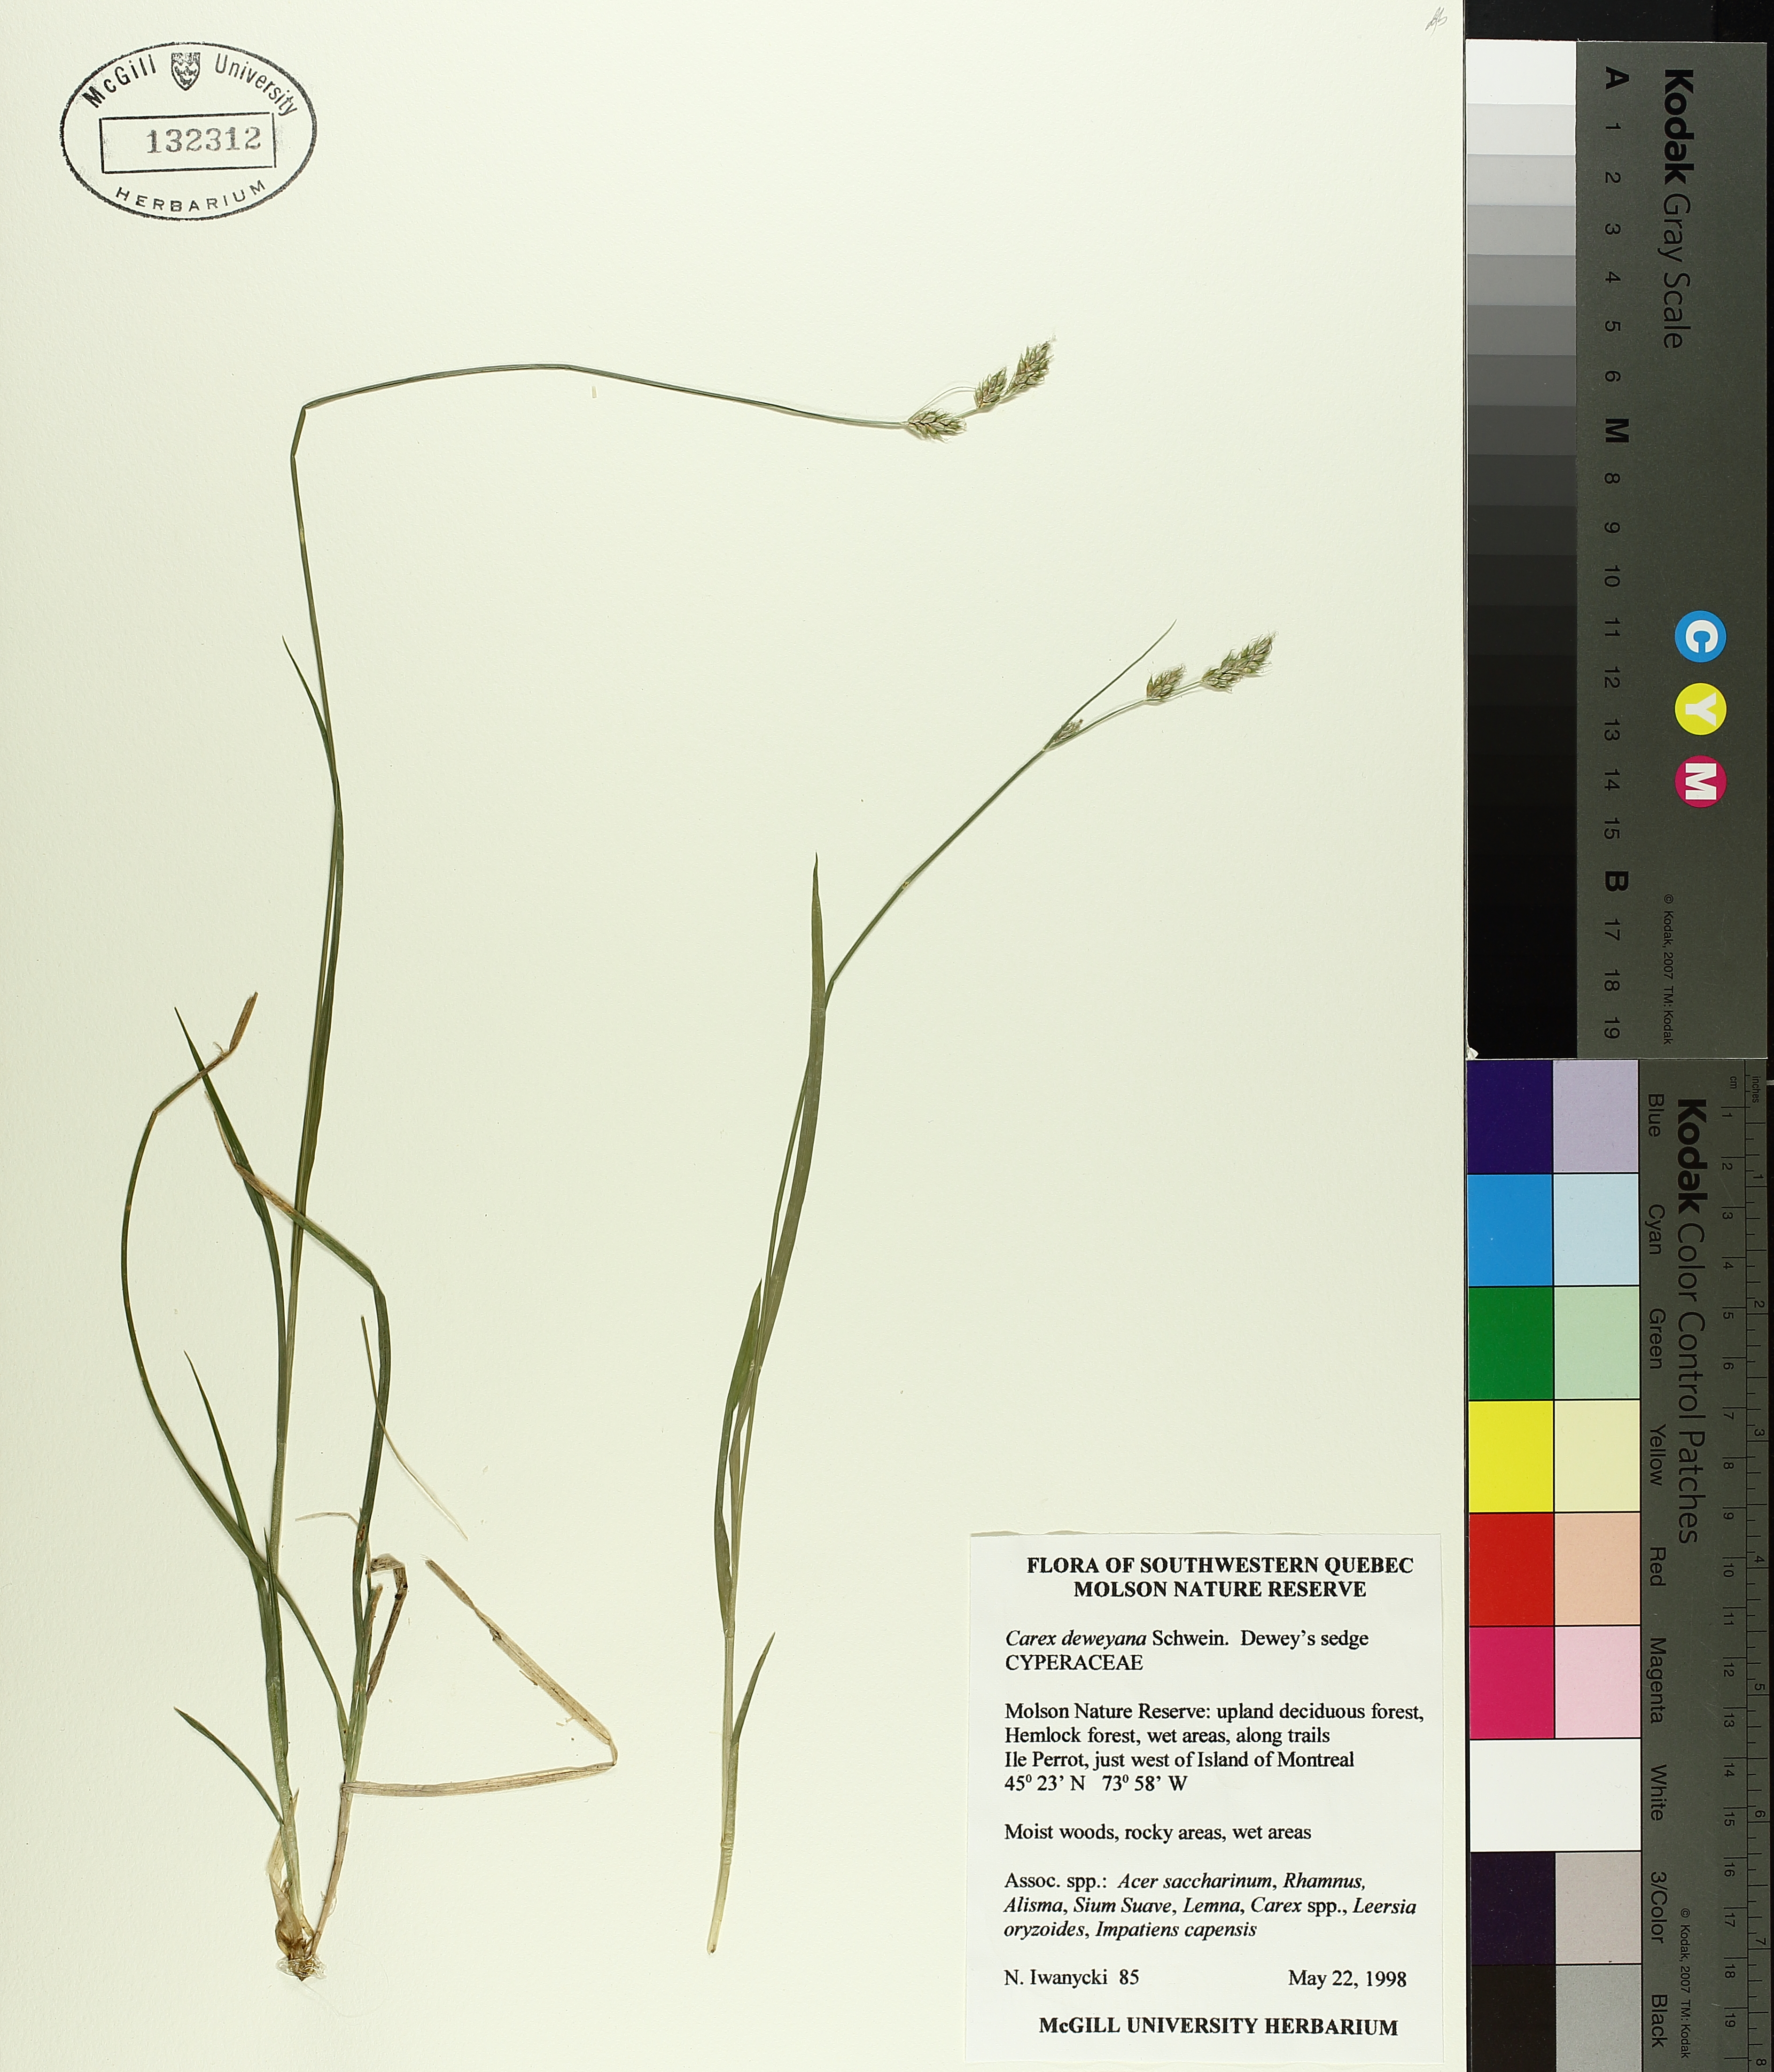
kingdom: Plantae
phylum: Tracheophyta
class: Liliopsida
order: Poales
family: Cyperaceae
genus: Carex
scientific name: Carex deweyana
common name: Dewey's sedge
